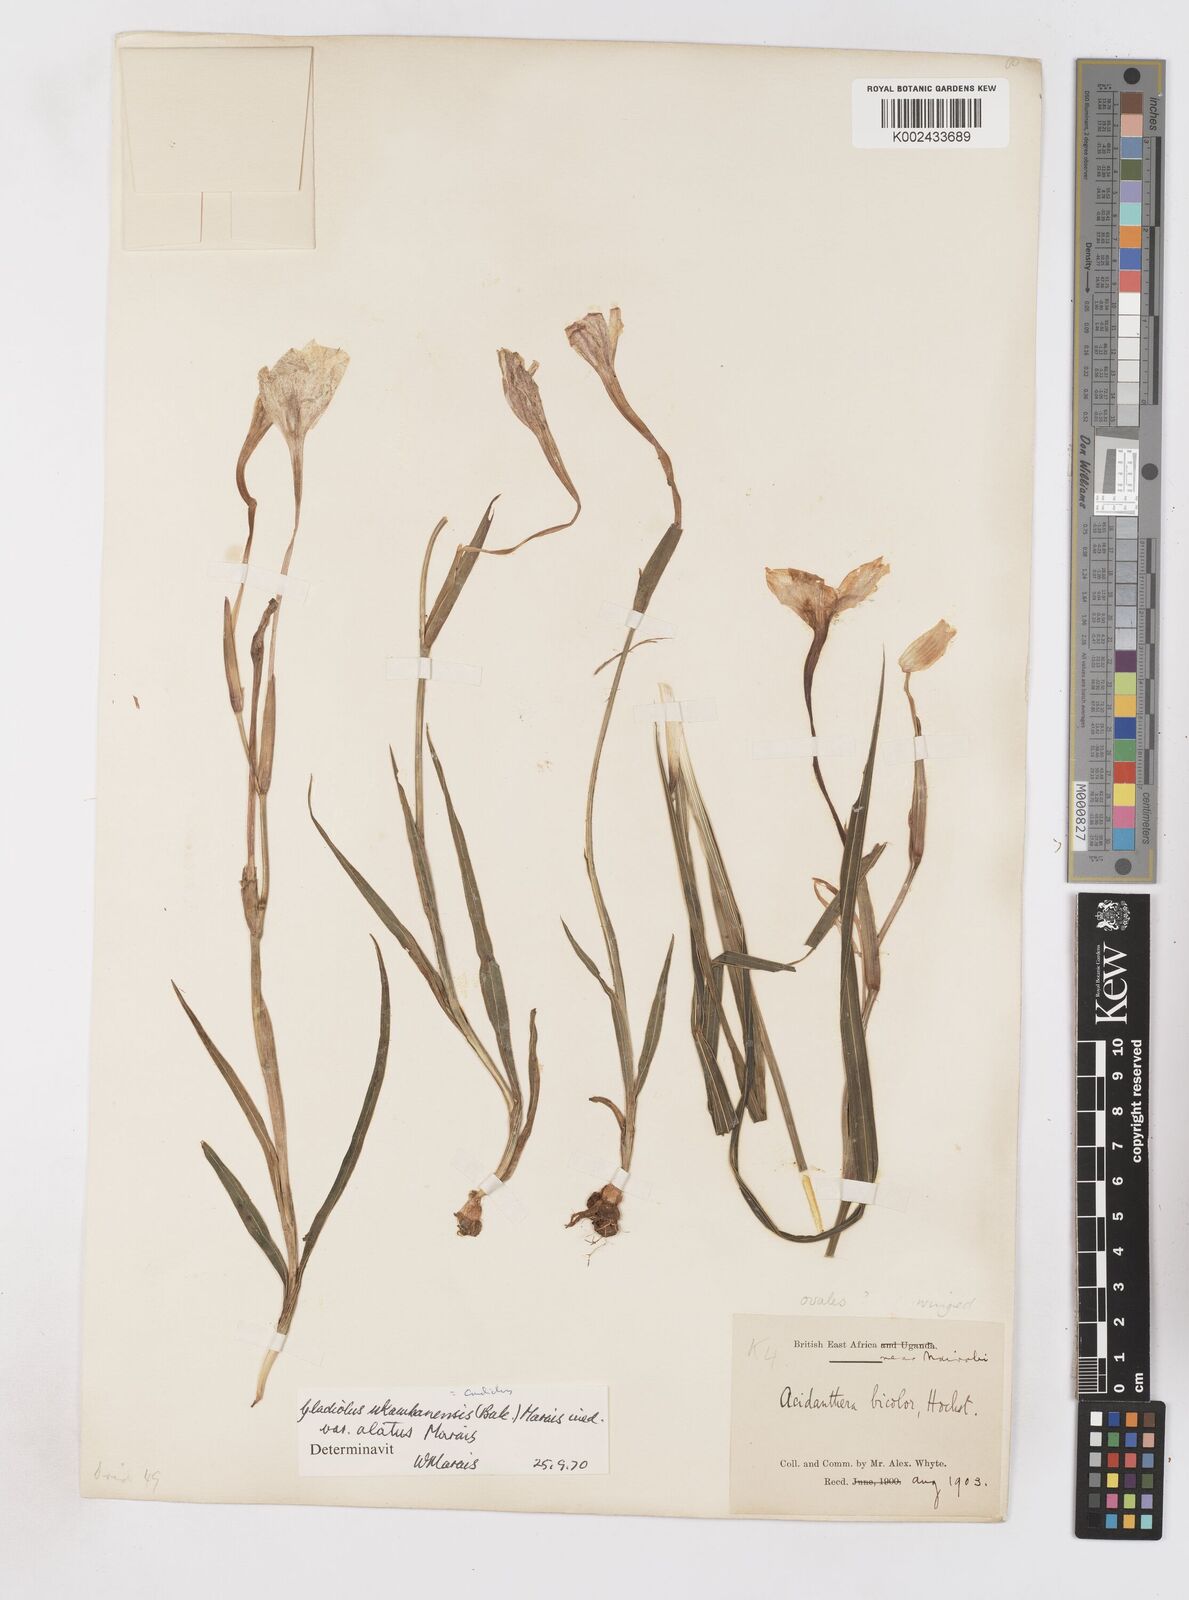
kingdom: Plantae
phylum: Tracheophyta
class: Liliopsida
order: Asparagales
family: Iridaceae
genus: Gladiolus
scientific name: Gladiolus candidus
